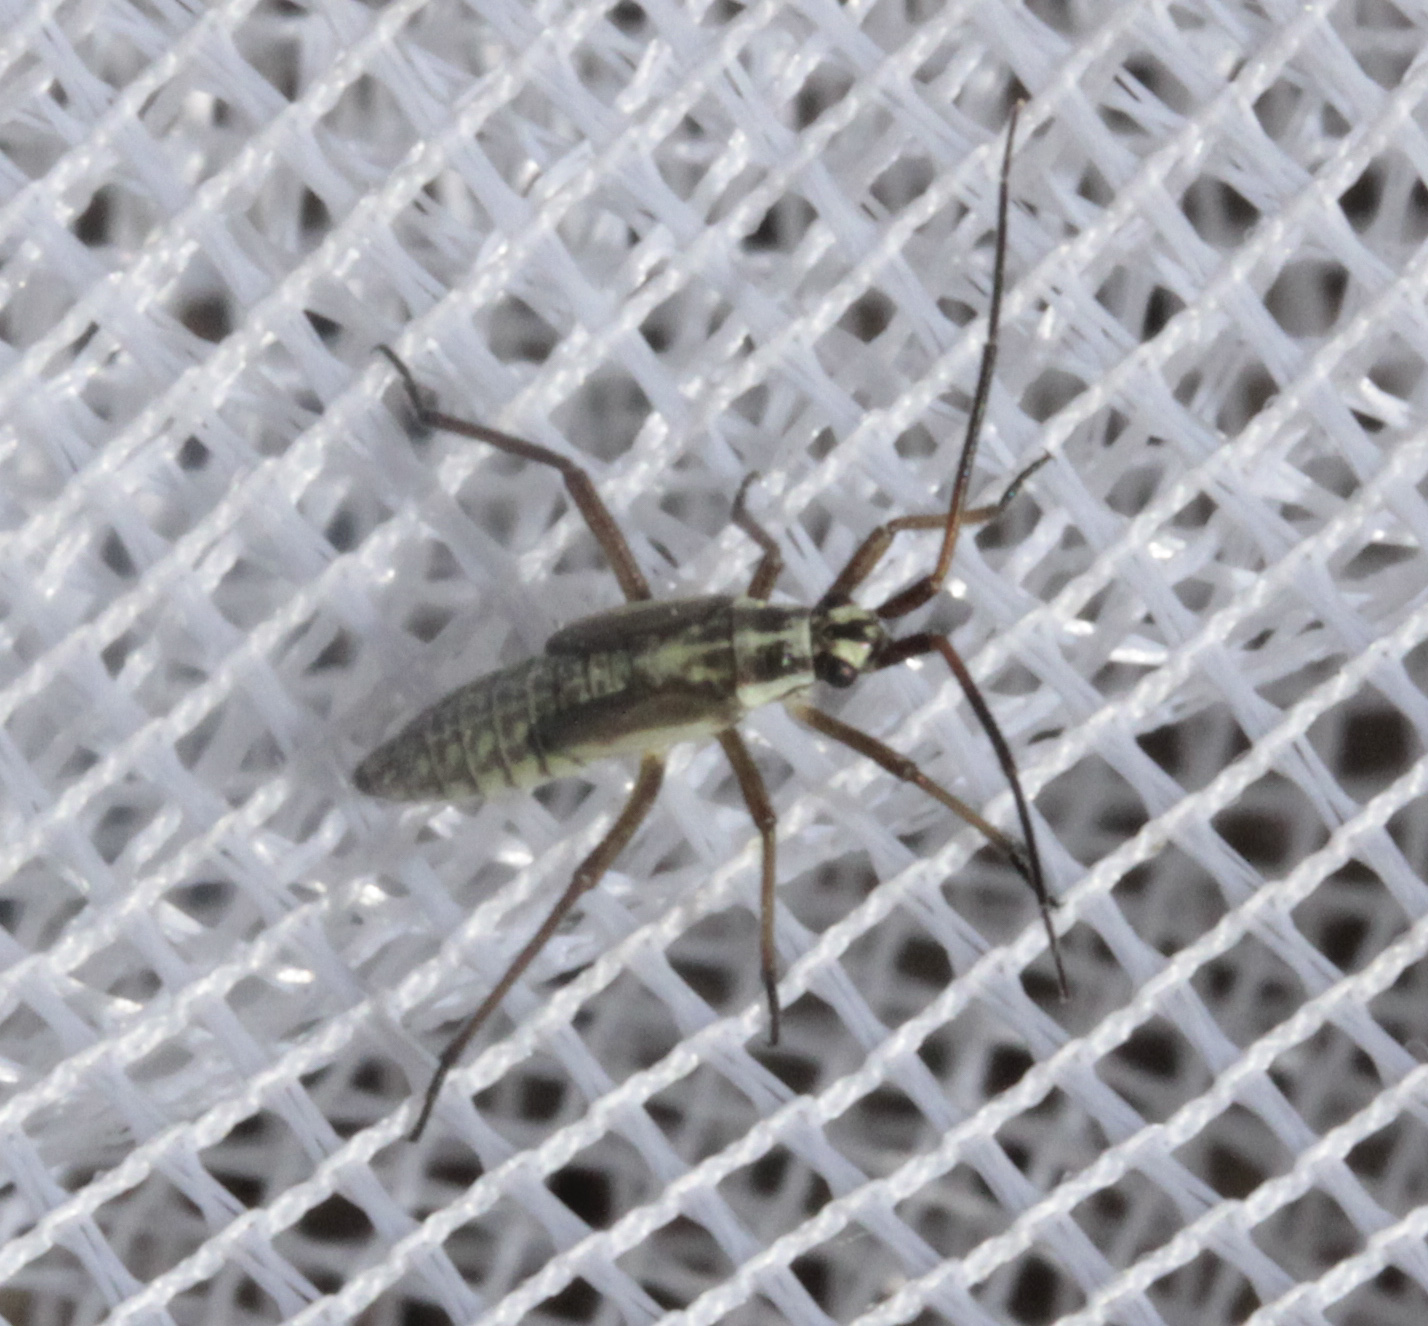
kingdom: Animalia
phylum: Arthropoda
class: Insecta
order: Hemiptera
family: Miridae
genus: Leptopterna
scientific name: Leptopterna dolabrata
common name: Meadow plant bug
